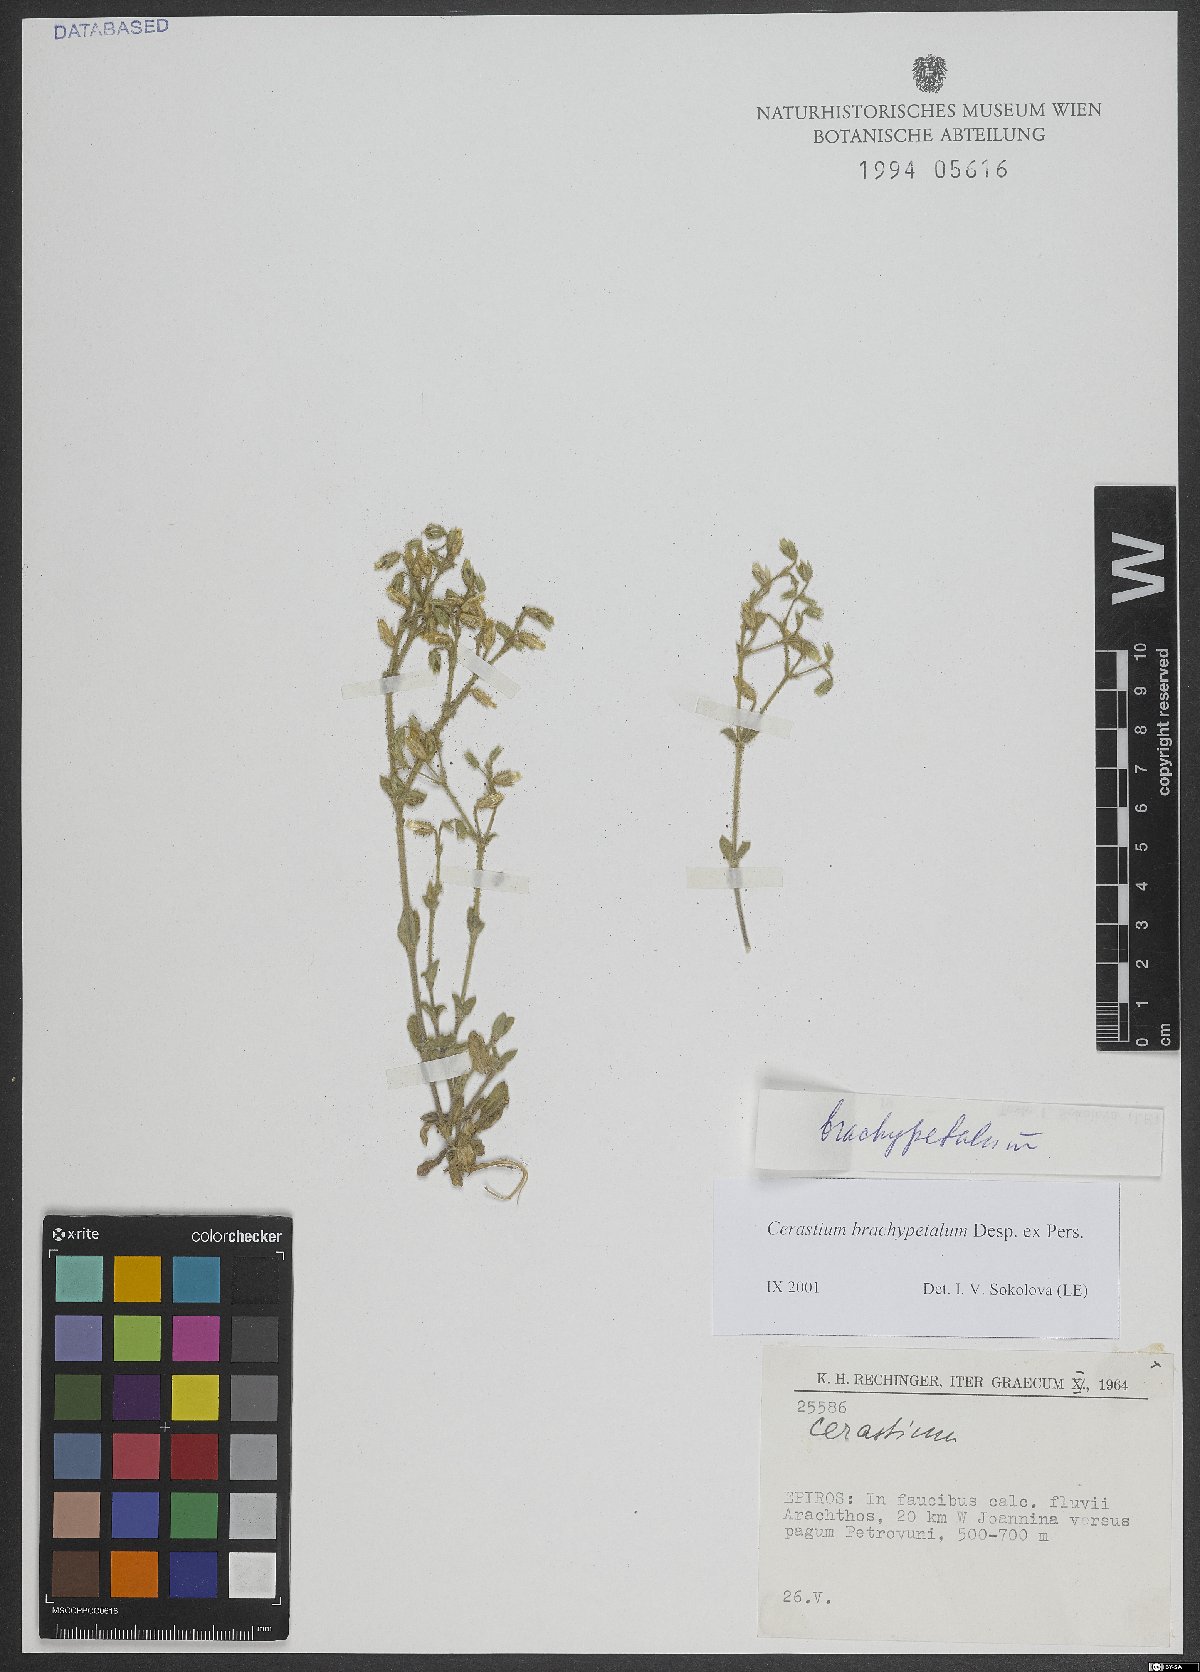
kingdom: Plantae
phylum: Tracheophyta
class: Magnoliopsida
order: Caryophyllales
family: Caryophyllaceae
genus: Cerastium
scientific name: Cerastium brachypetalum
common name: Grey mouse-ear
